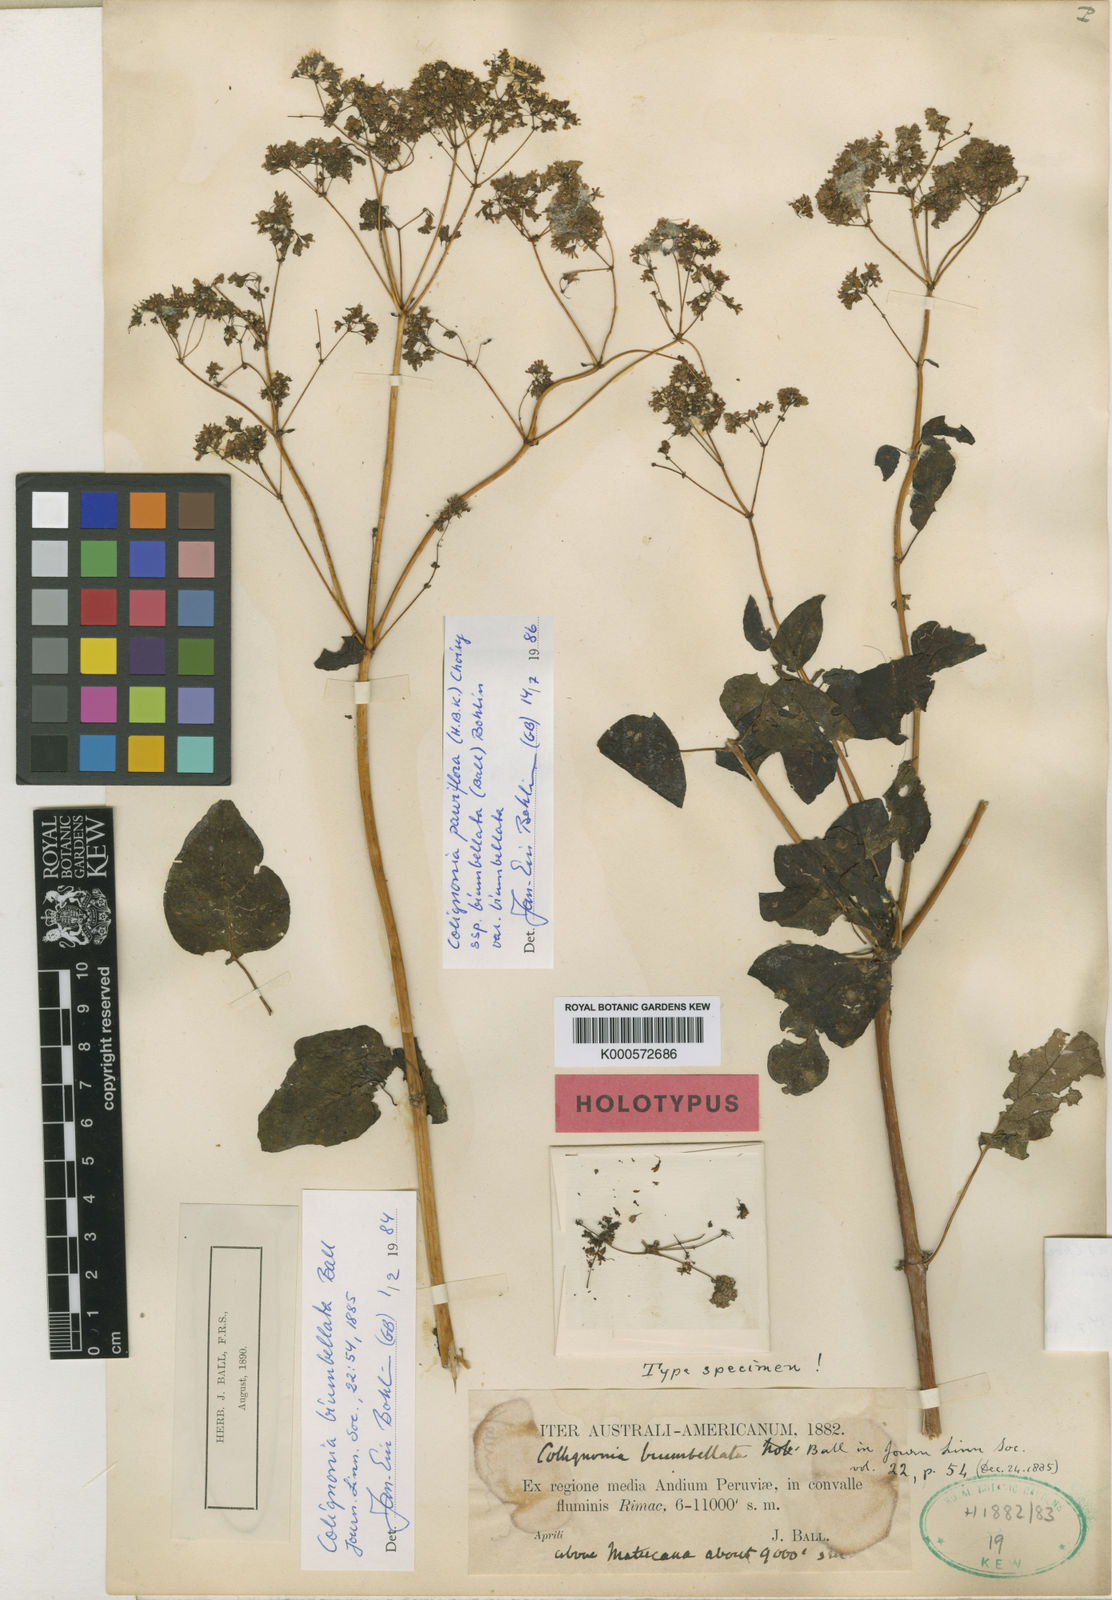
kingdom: Plantae
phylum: Tracheophyta
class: Magnoliopsida
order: Caryophyllales
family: Nyctaginaceae
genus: Colignonia
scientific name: Colignonia parviflora
